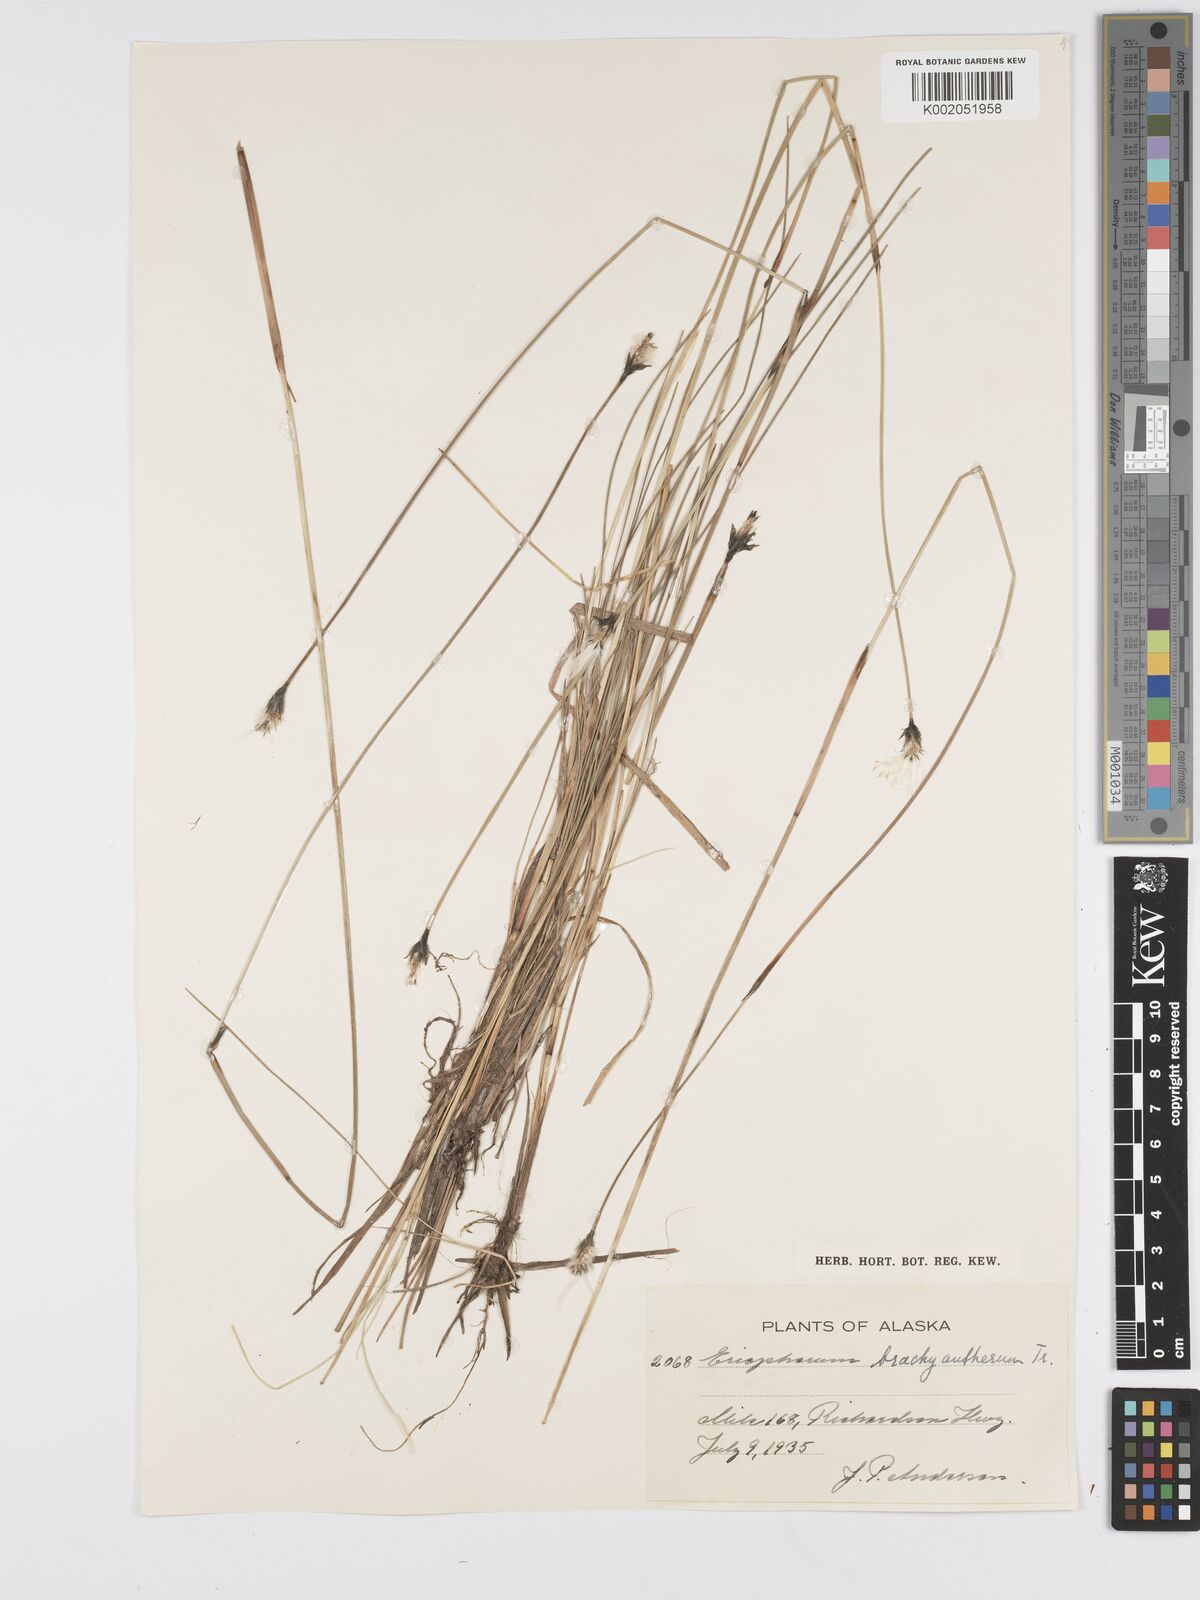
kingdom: Plantae
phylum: Tracheophyta
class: Liliopsida
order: Poales
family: Cyperaceae
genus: Eriophorum
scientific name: Eriophorum brachyantherum
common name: Closed-sheathed cottongrass
